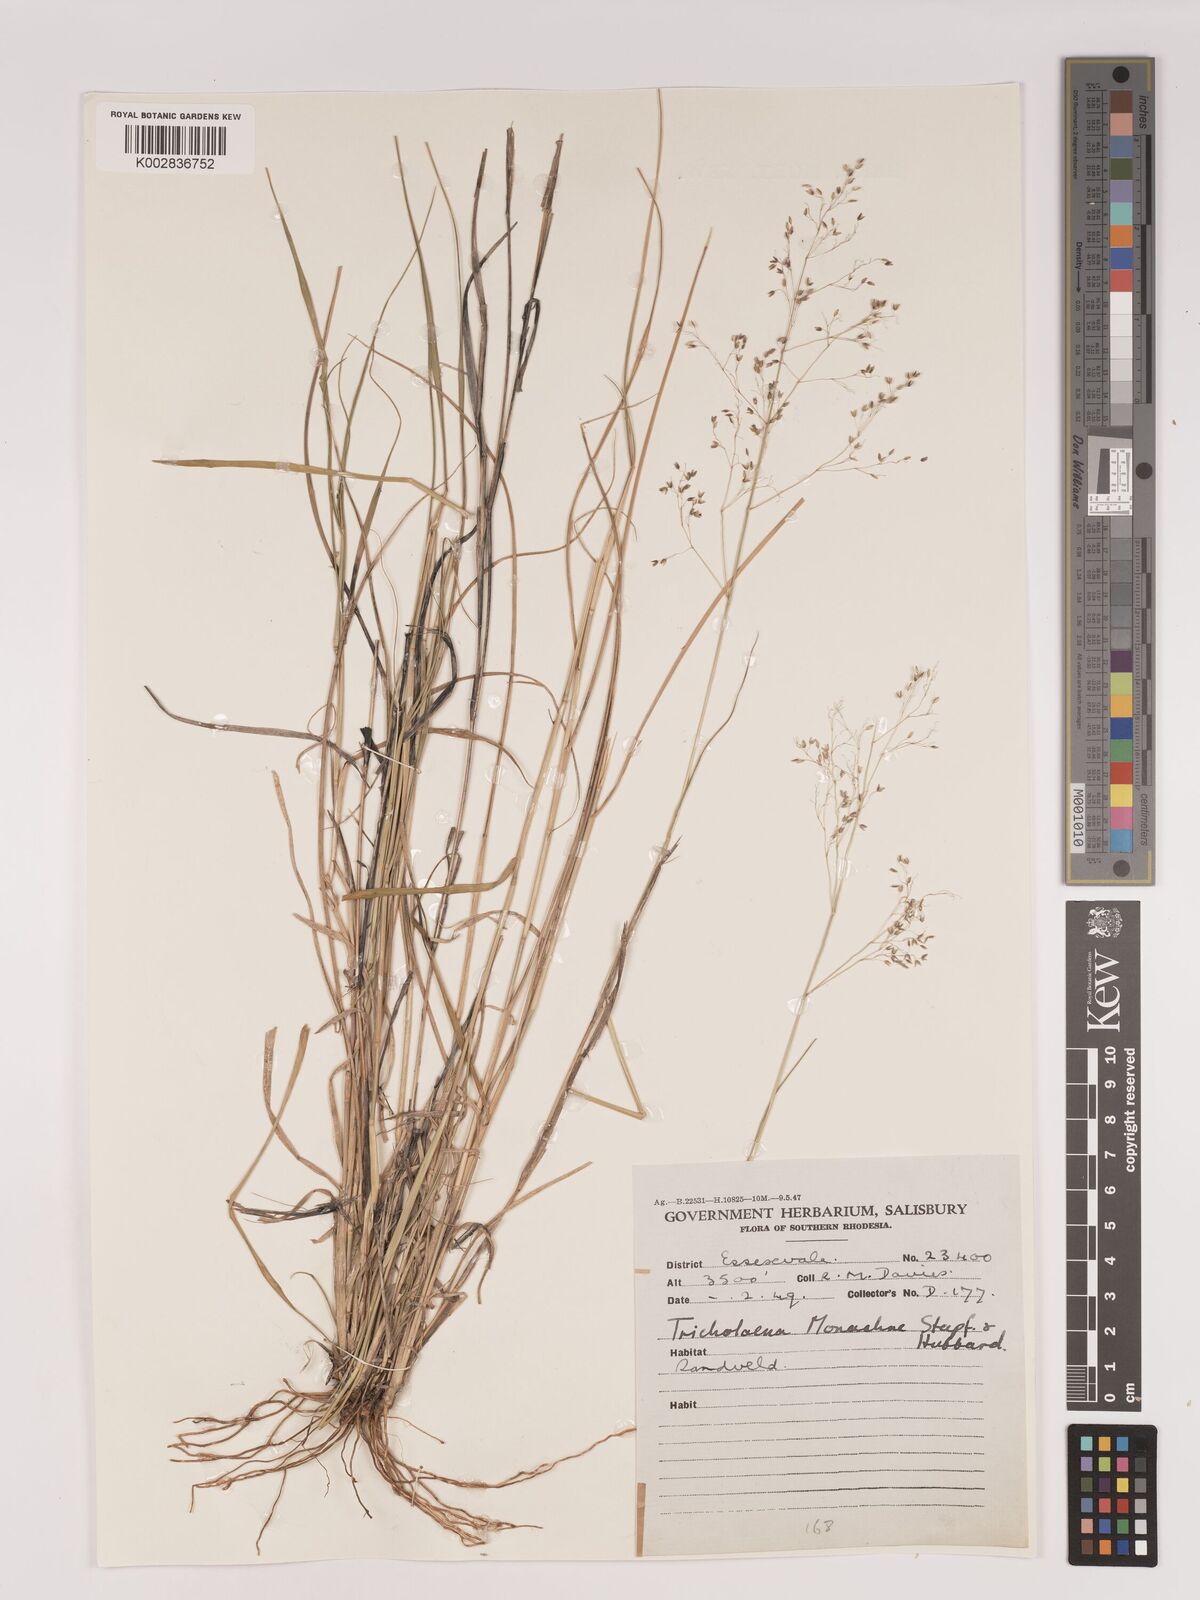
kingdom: Plantae
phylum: Tracheophyta
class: Liliopsida
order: Poales
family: Poaceae
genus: Tricholaena
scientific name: Tricholaena monachne
